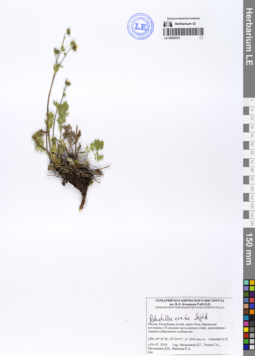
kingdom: Plantae
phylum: Tracheophyta
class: Magnoliopsida
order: Rosales
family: Rosaceae
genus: Potentilla
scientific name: Potentilla exuta
